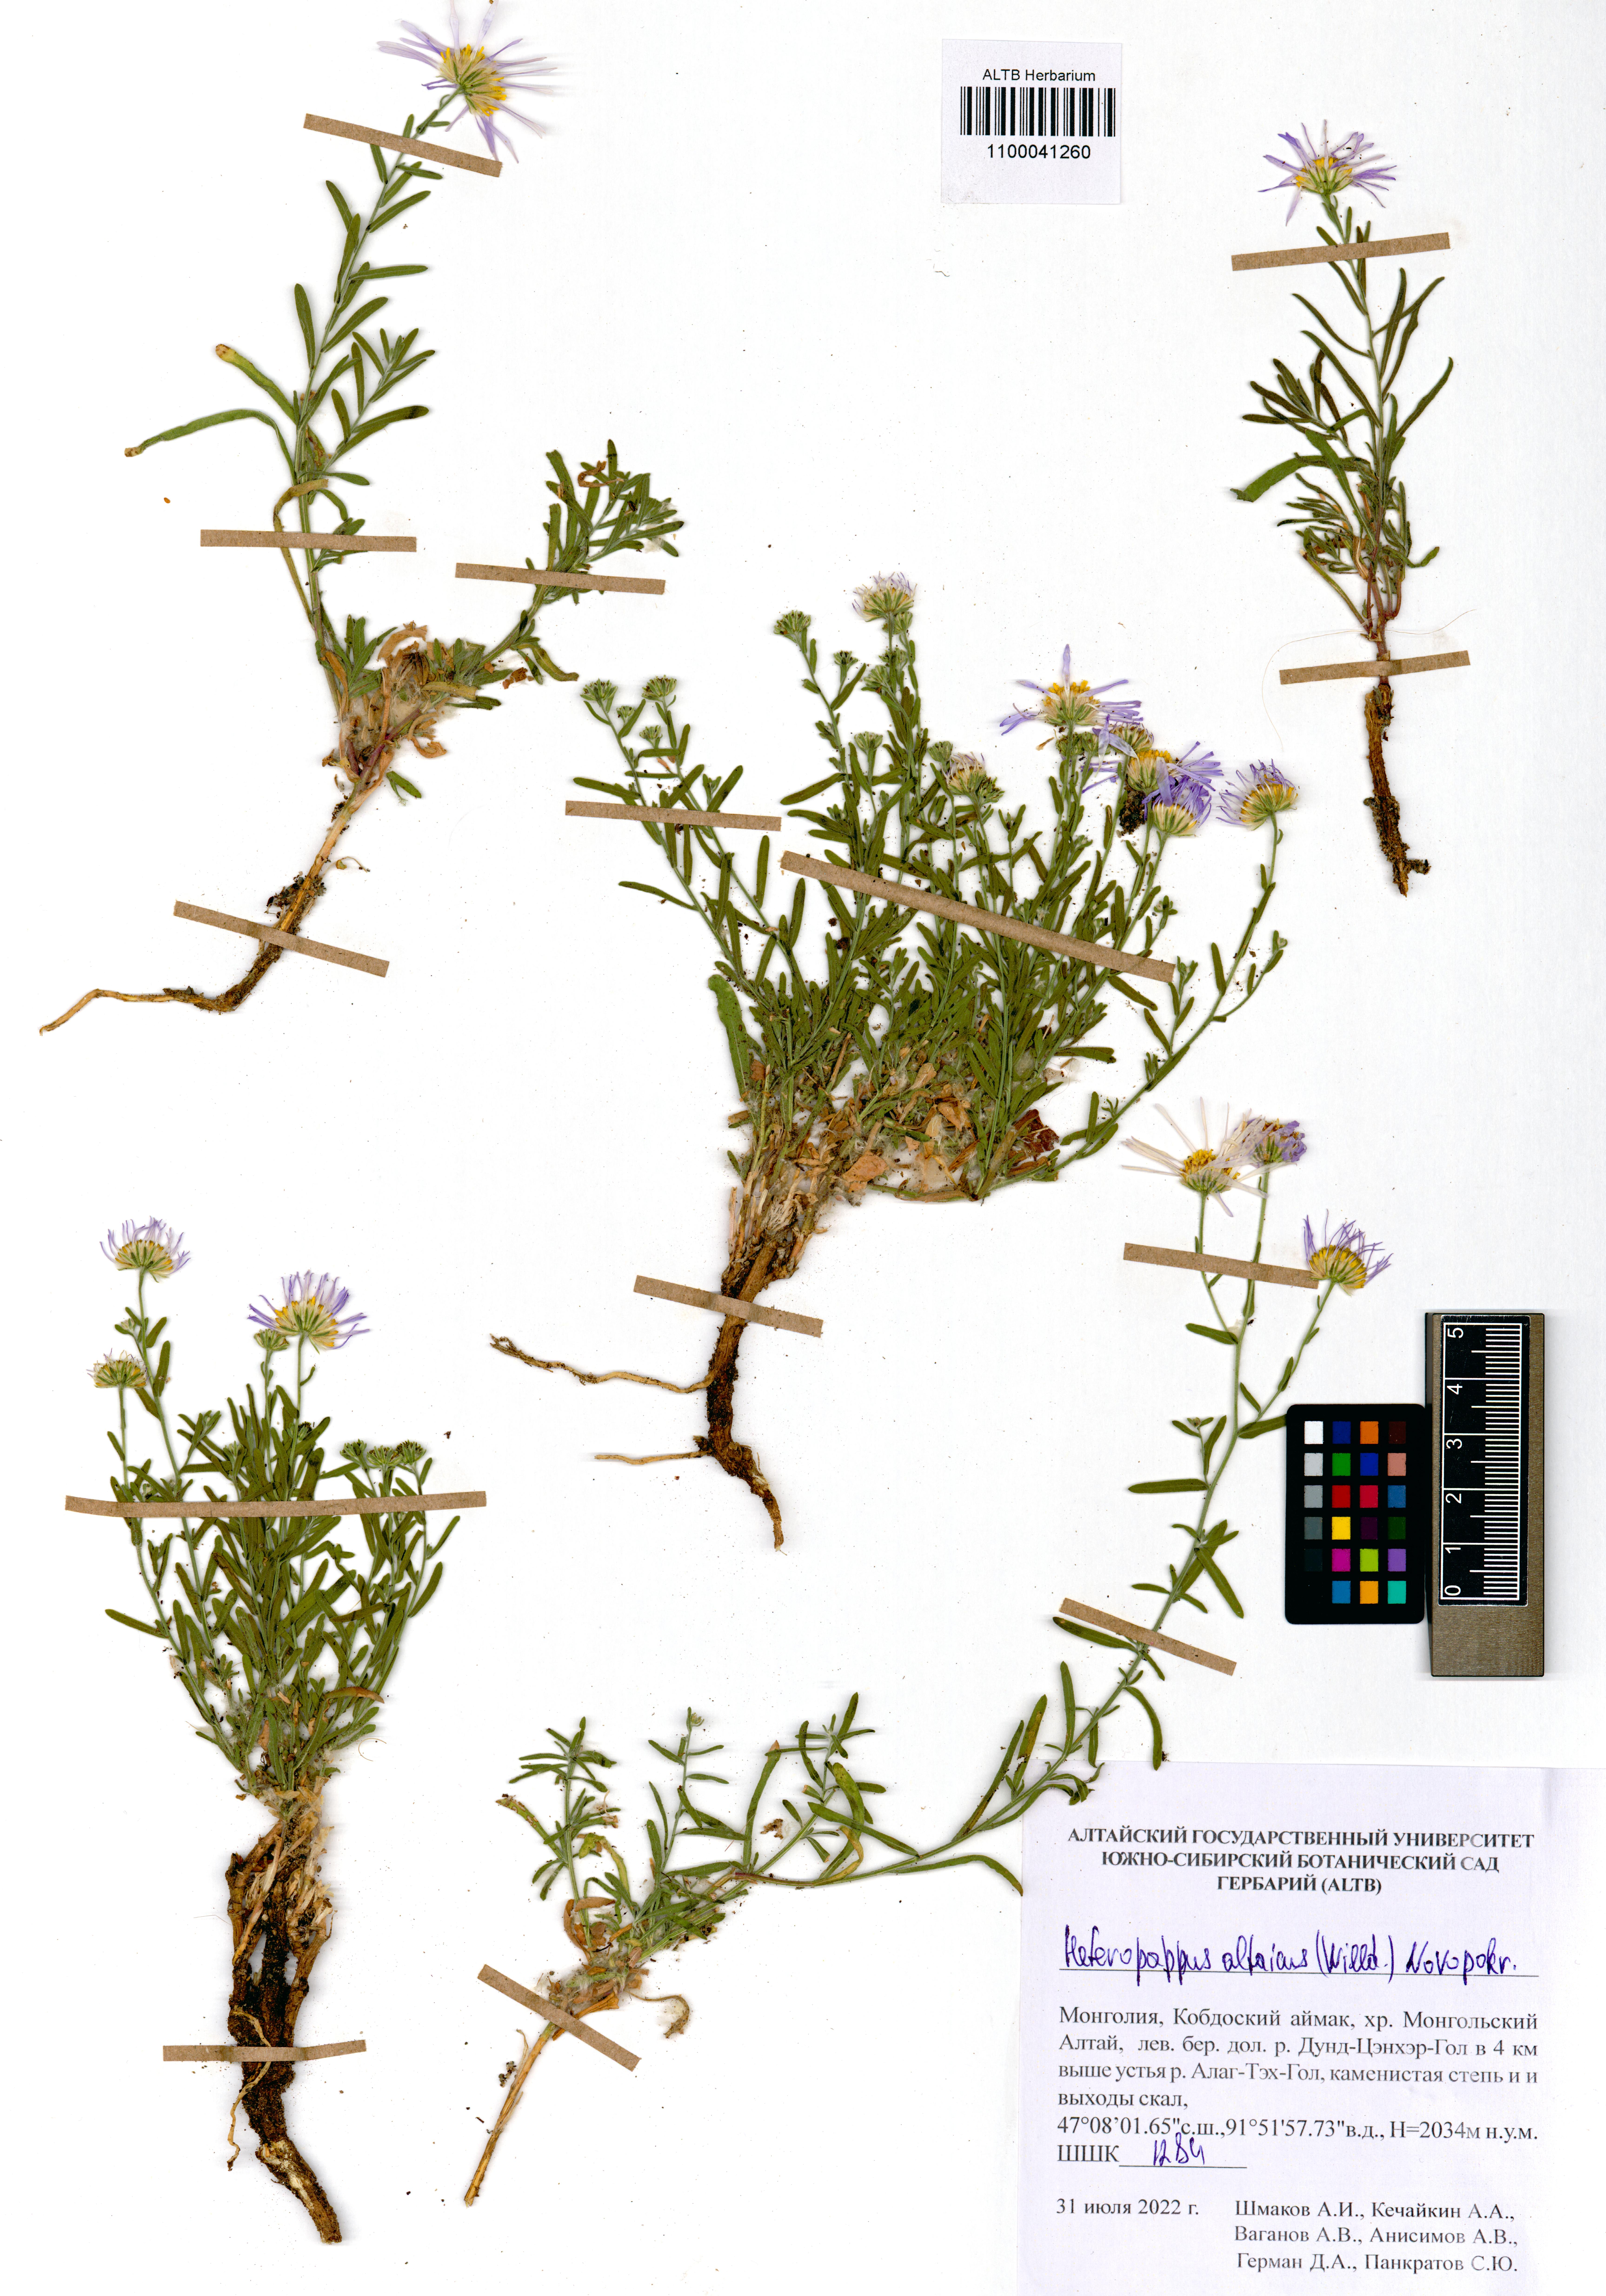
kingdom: Plantae
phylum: Tracheophyta
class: Magnoliopsida
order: Asterales
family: Asteraceae
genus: Heteropappus
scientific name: Heteropappus altaicus
